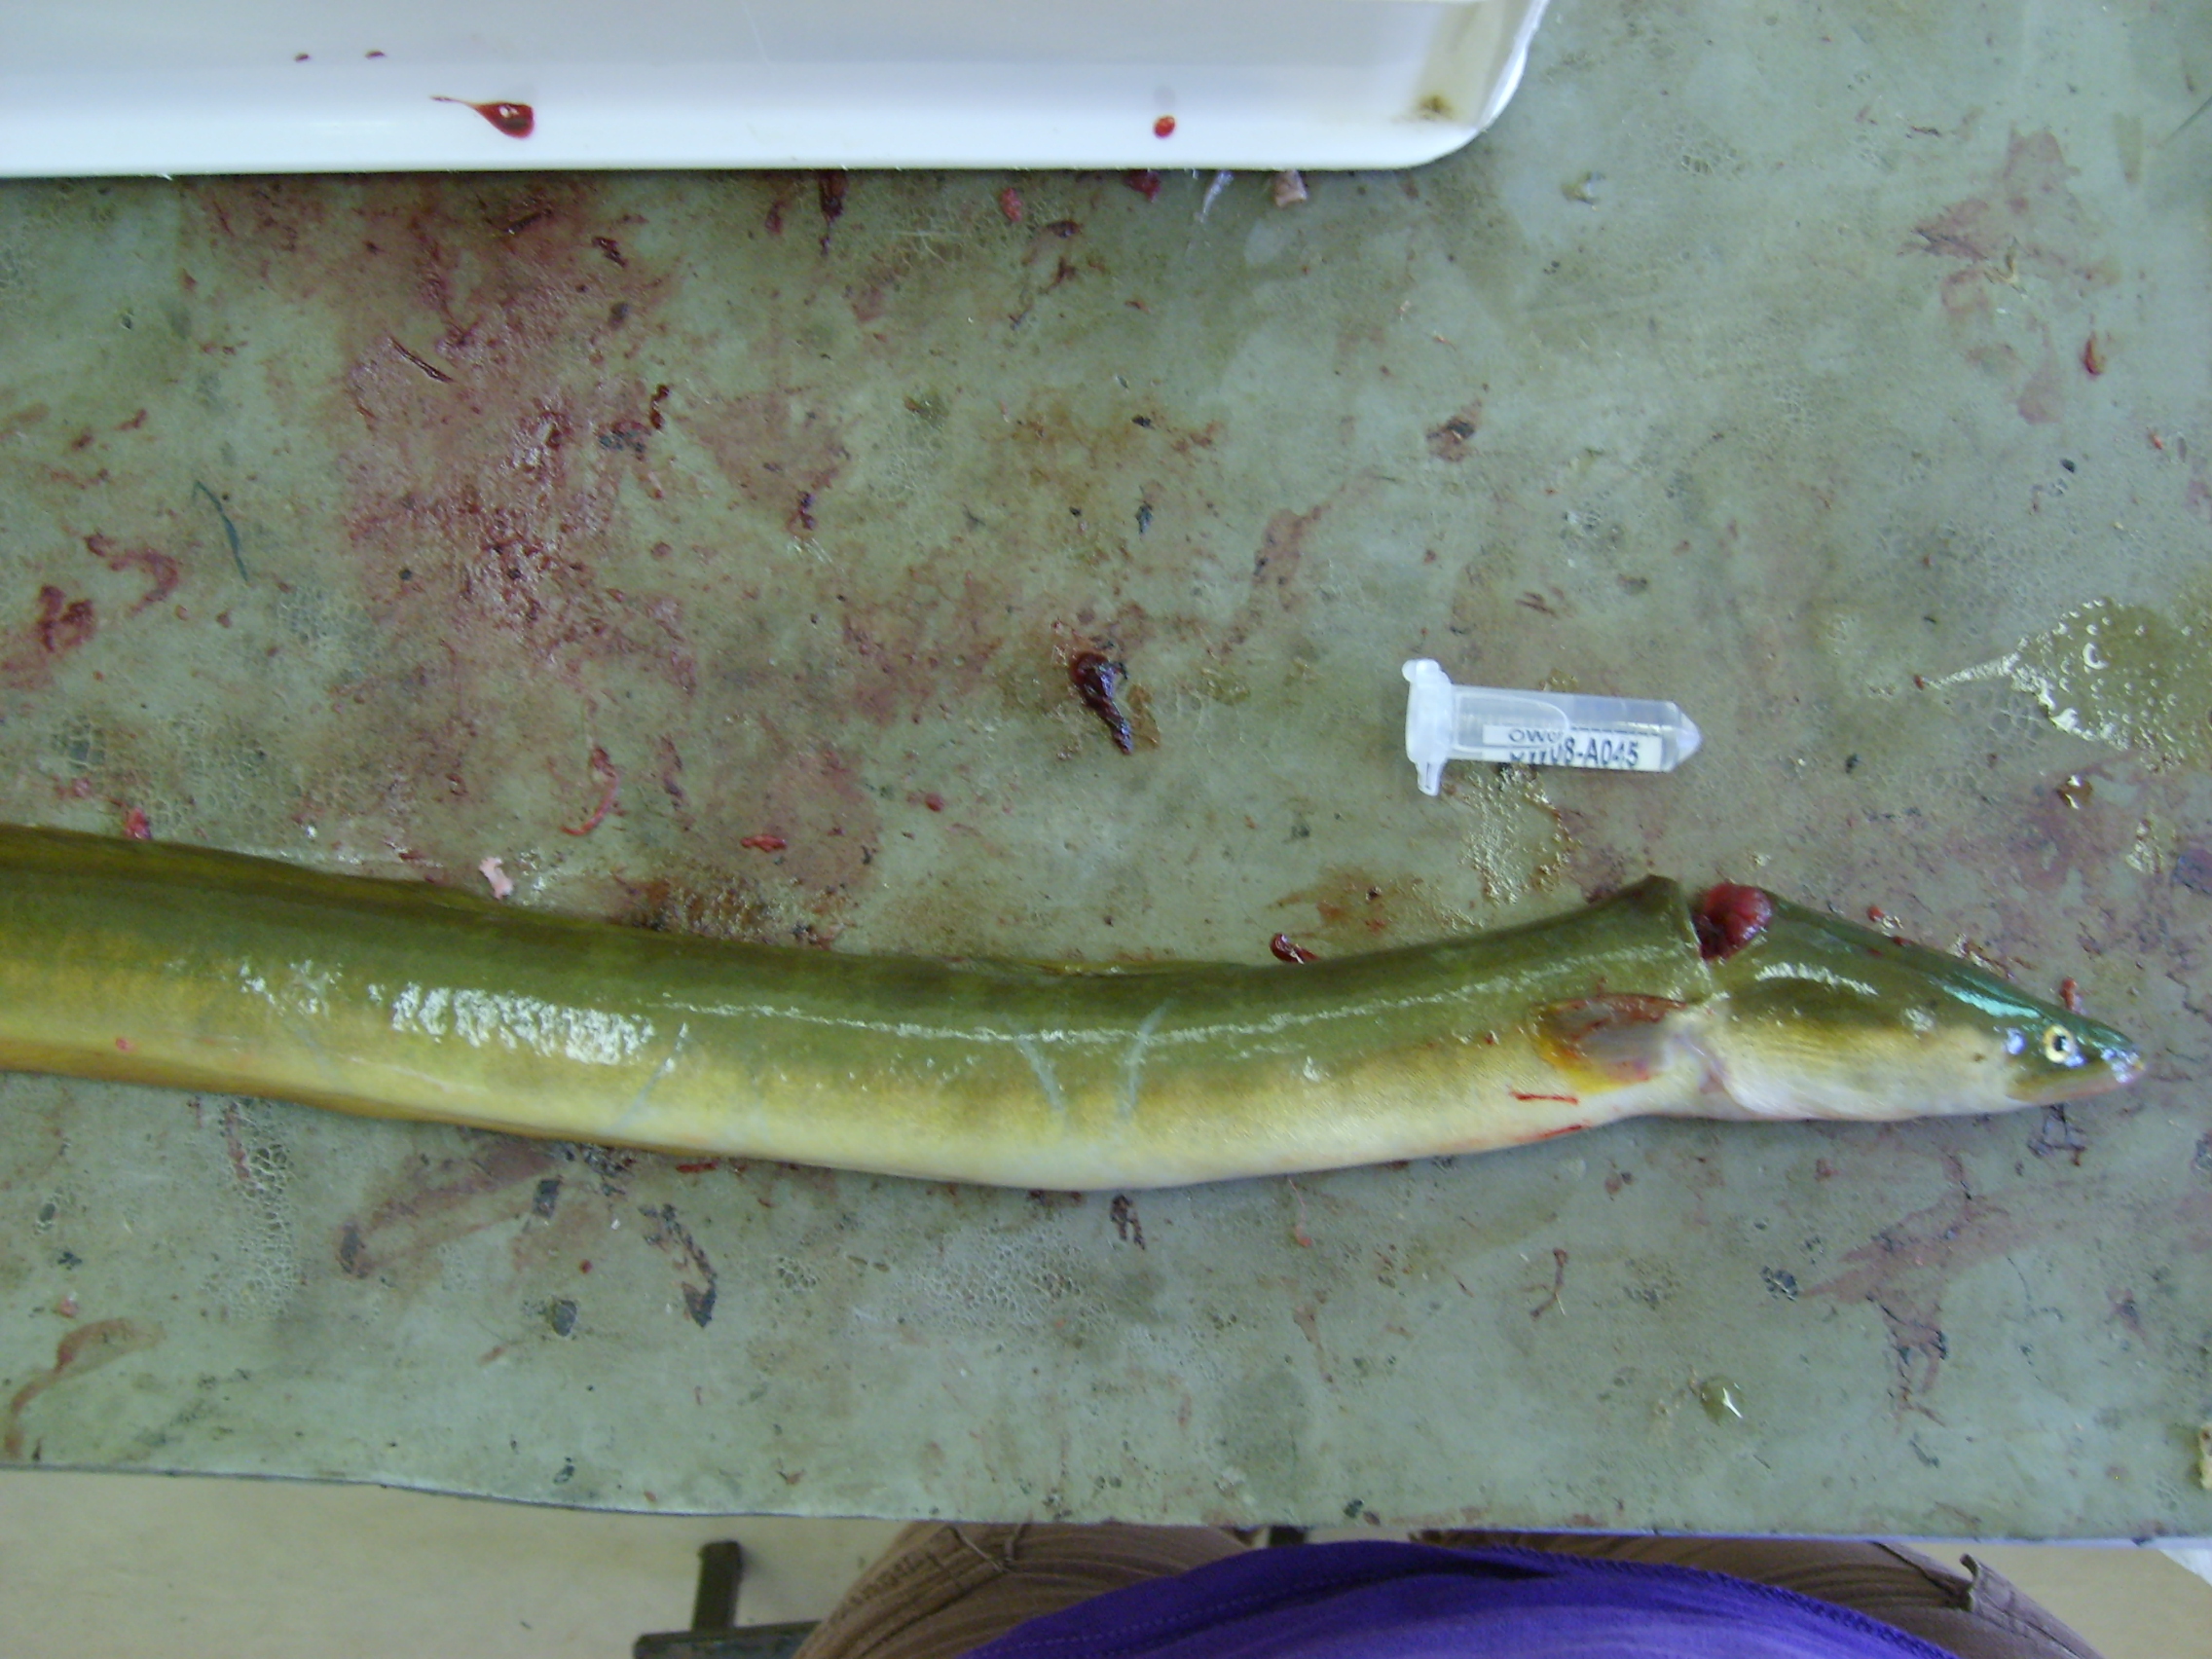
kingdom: Animalia
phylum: Chordata
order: Anguilliformes
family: Anguillidae
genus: Anguilla
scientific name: Anguilla mossambica
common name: African longfin eel
